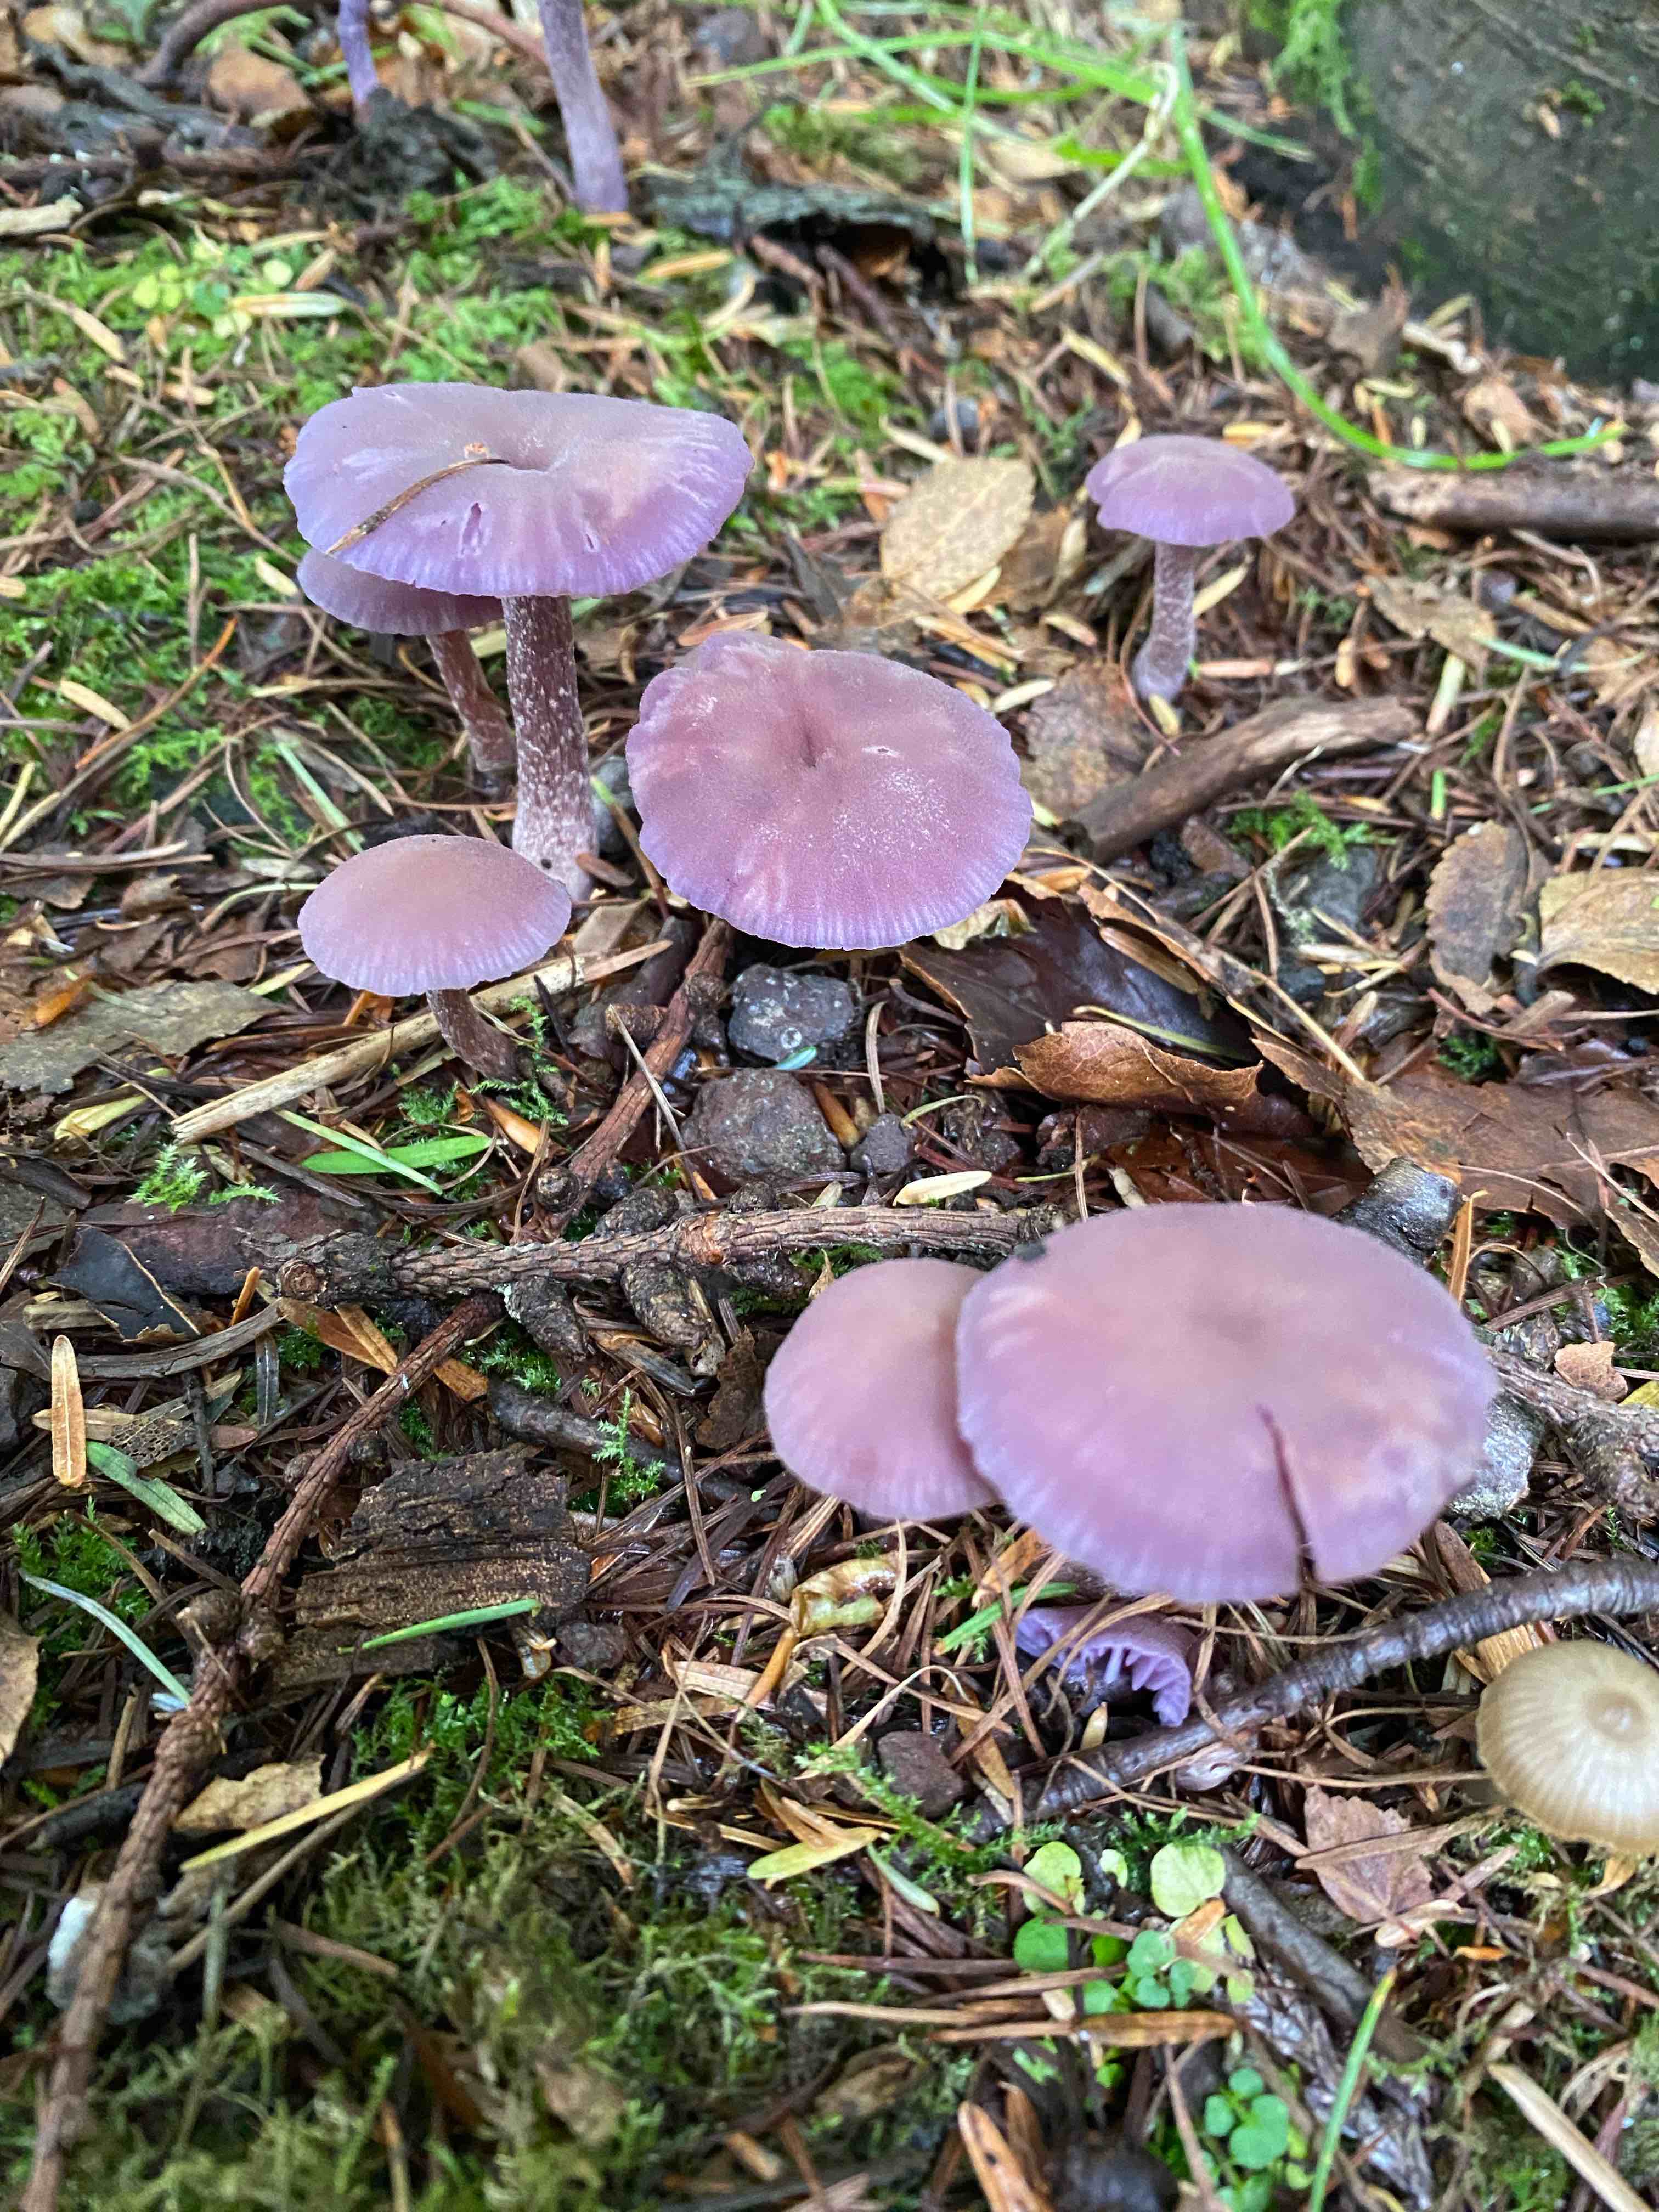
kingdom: Fungi
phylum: Basidiomycota
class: Agaricomycetes
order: Agaricales
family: Hydnangiaceae
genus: Laccaria
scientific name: Laccaria amethystina
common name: violet ametysthat
